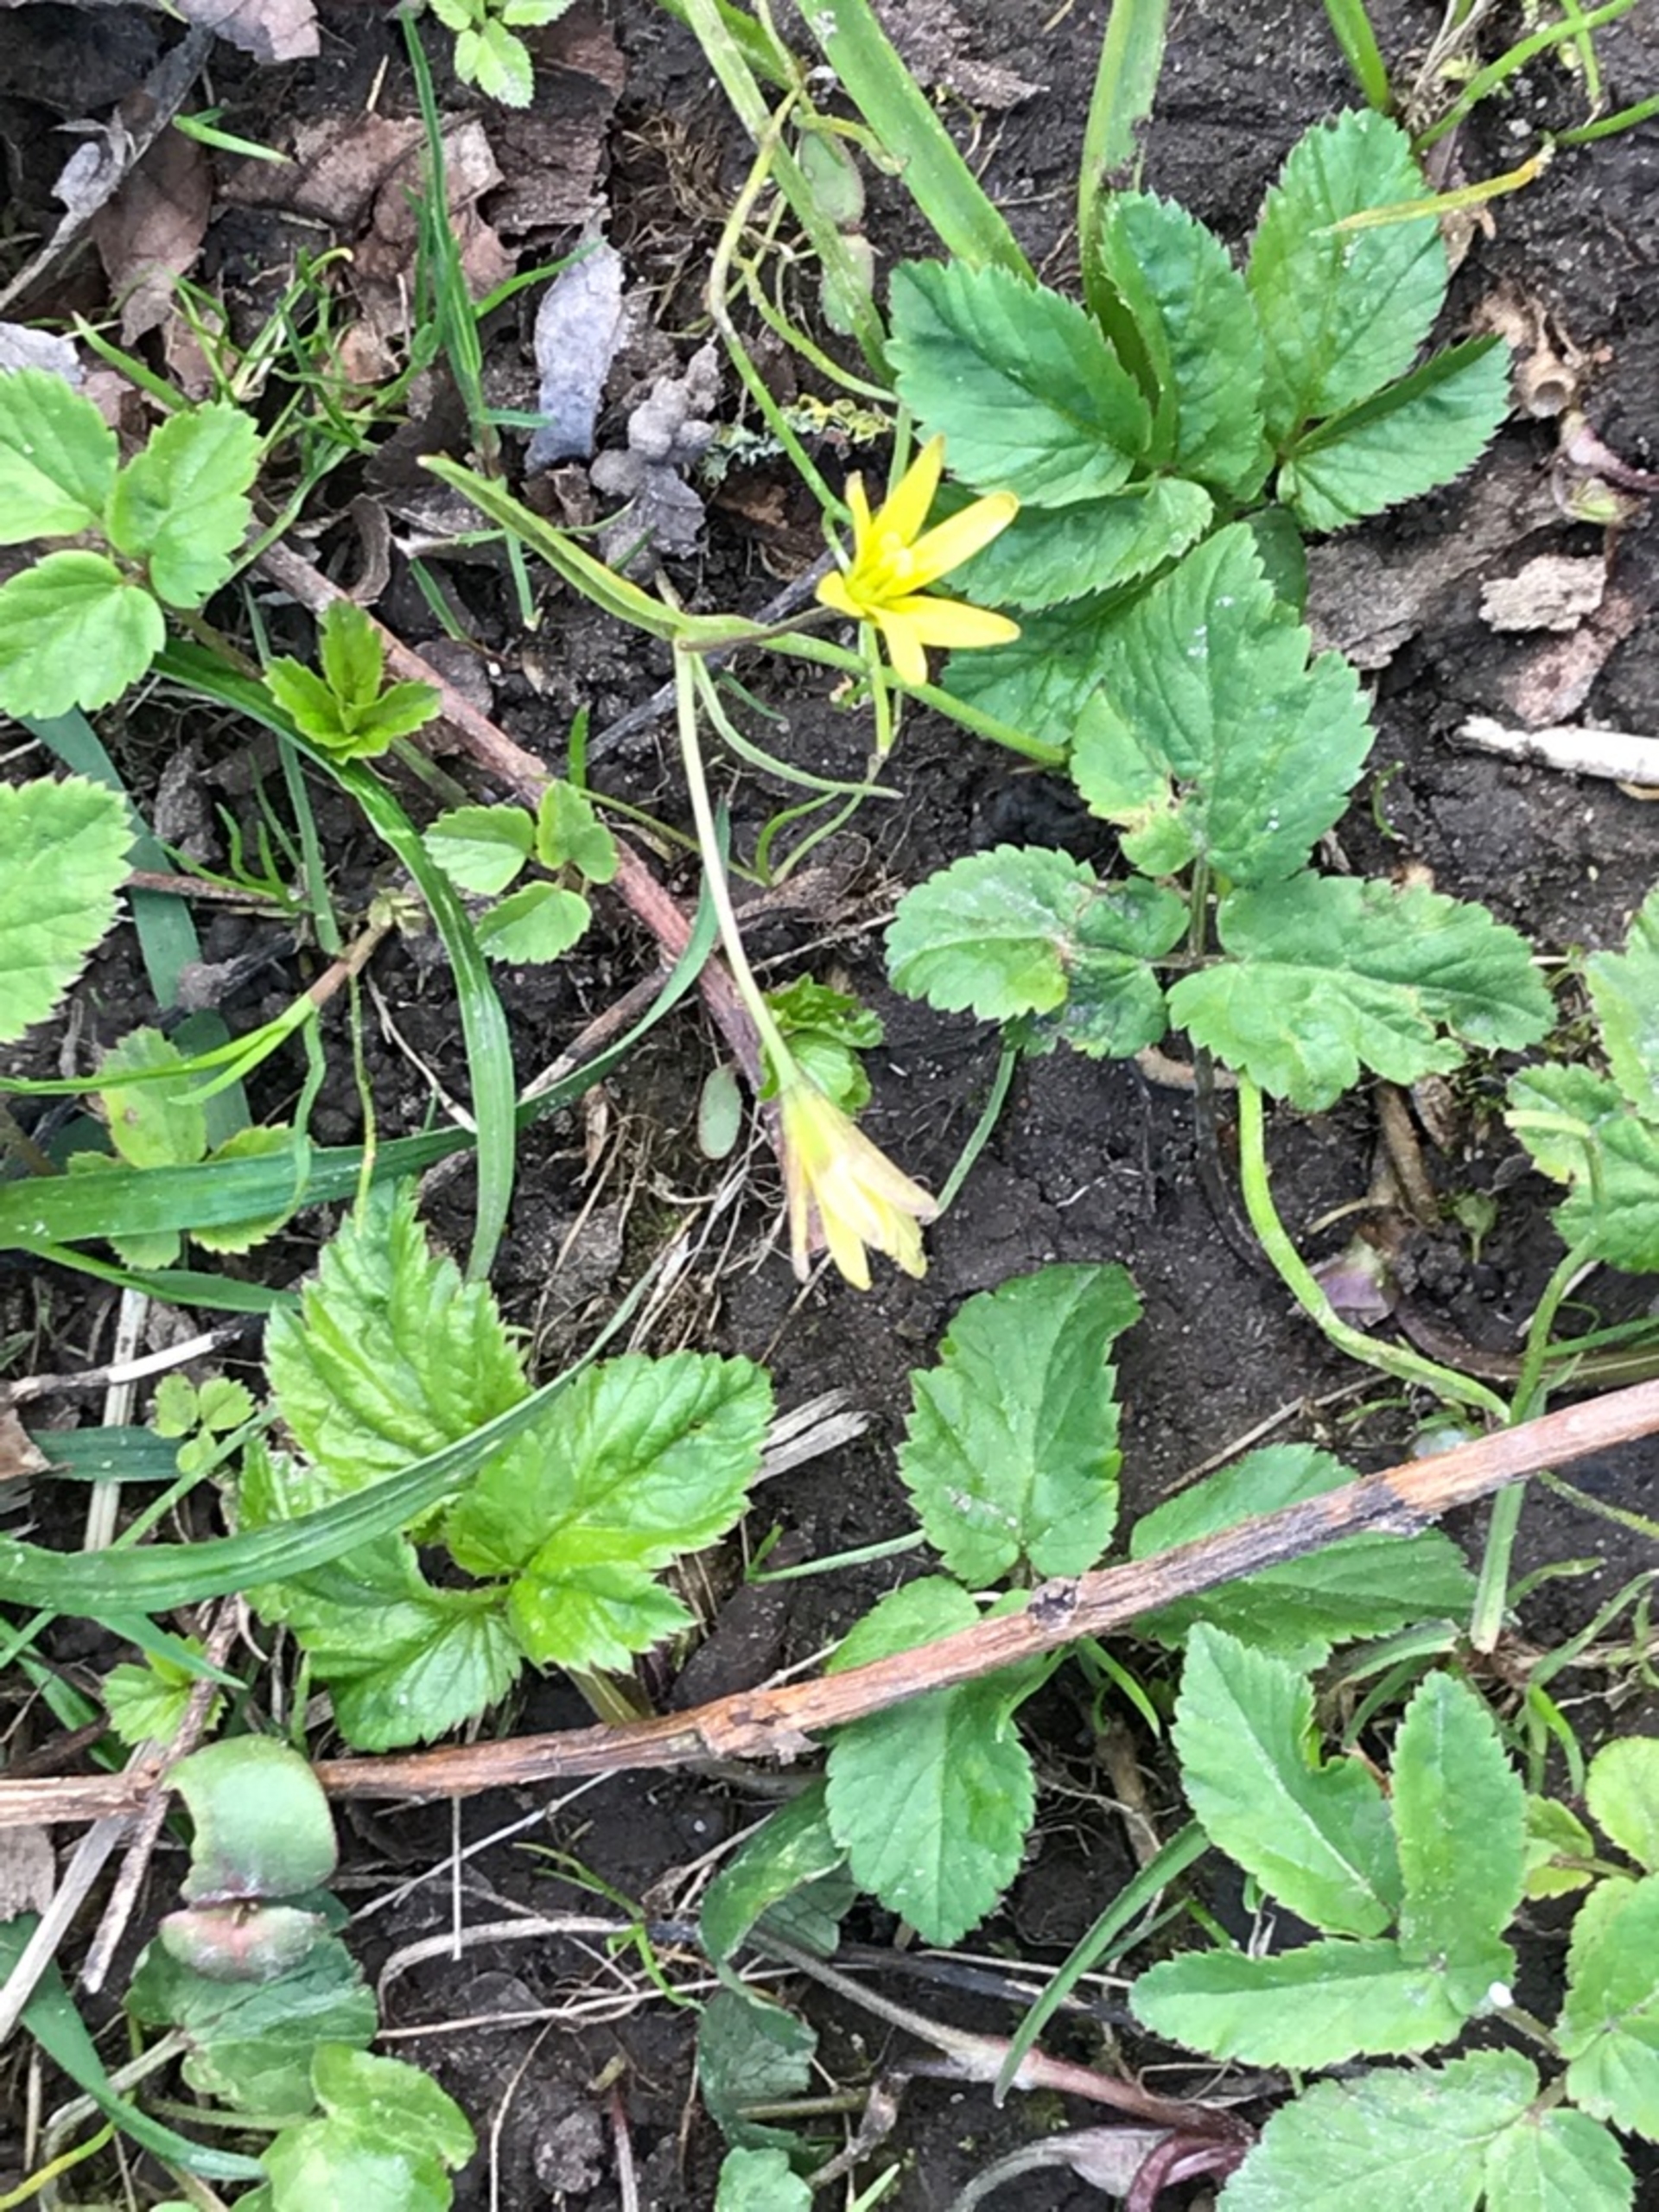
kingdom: Plantae
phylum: Tracheophyta
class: Liliopsida
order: Liliales
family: Liliaceae
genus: Gagea
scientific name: Gagea lutea
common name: Almindelig guldstjerne
